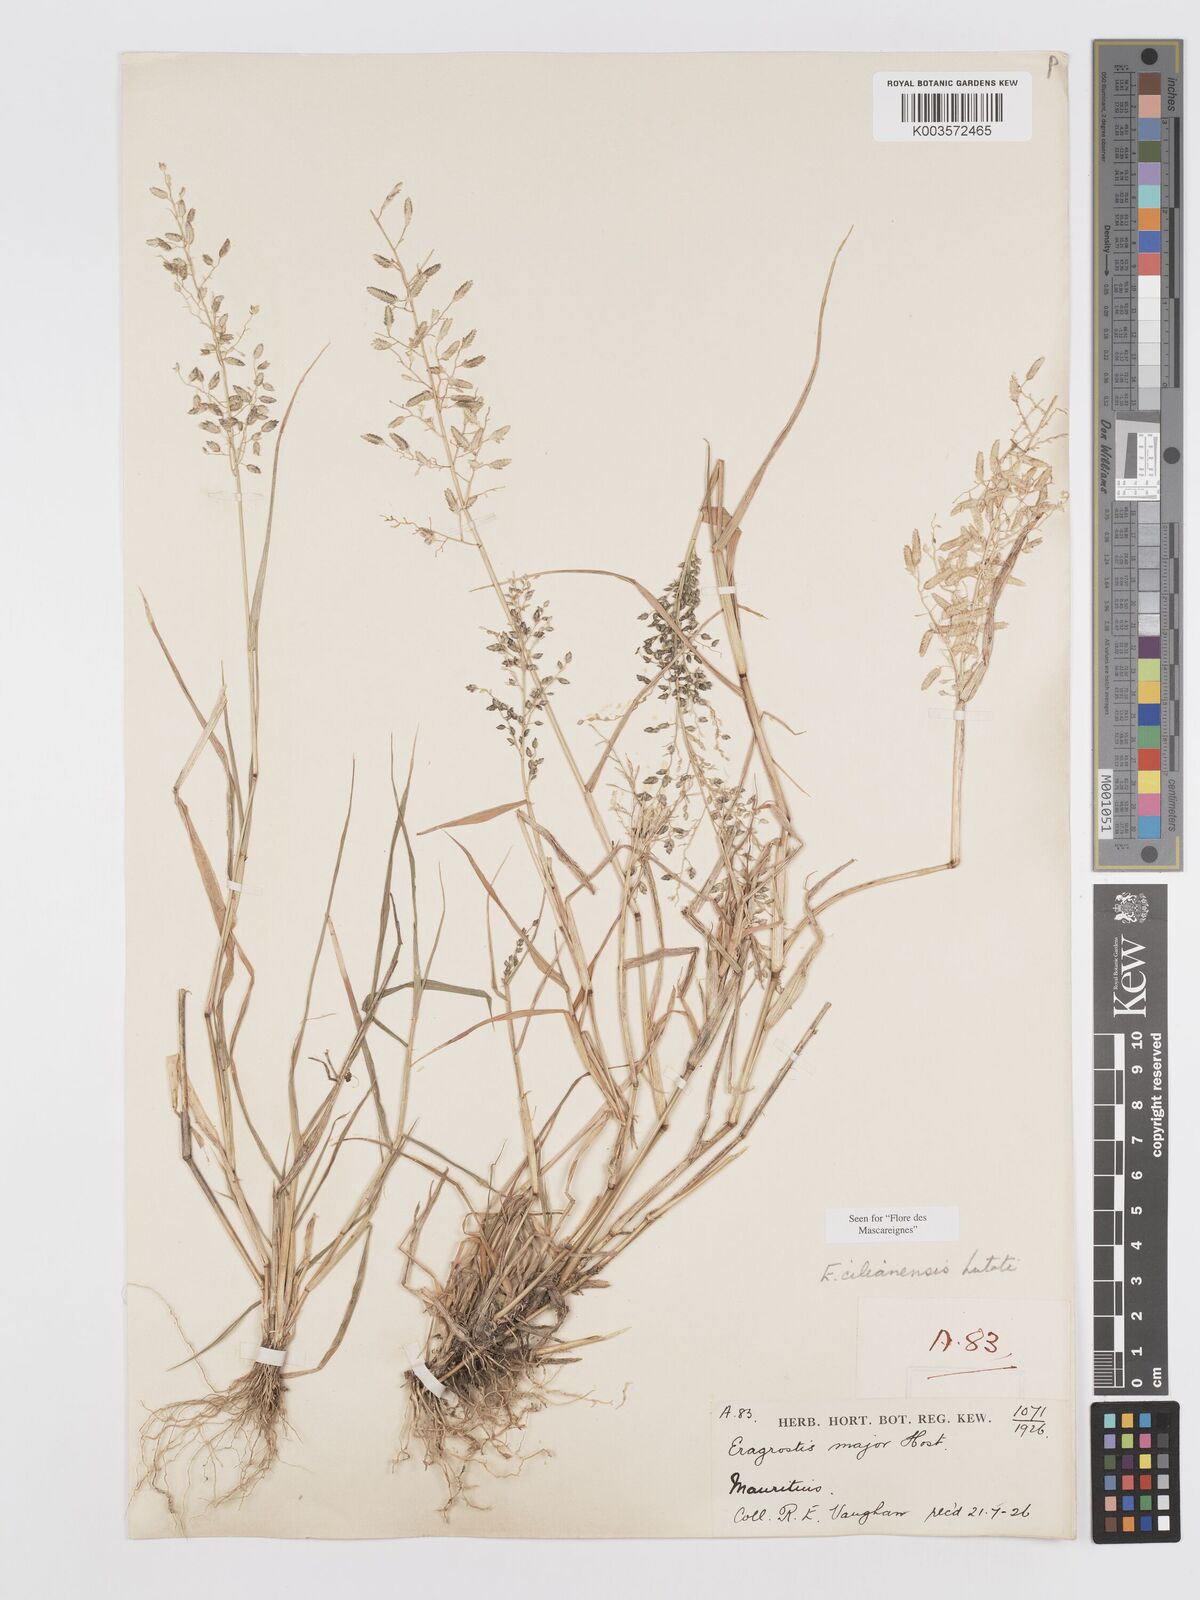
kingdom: Plantae
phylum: Tracheophyta
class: Liliopsida
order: Poales
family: Poaceae
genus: Eragrostis
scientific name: Eragrostis cilianensis
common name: Stinkgrass
